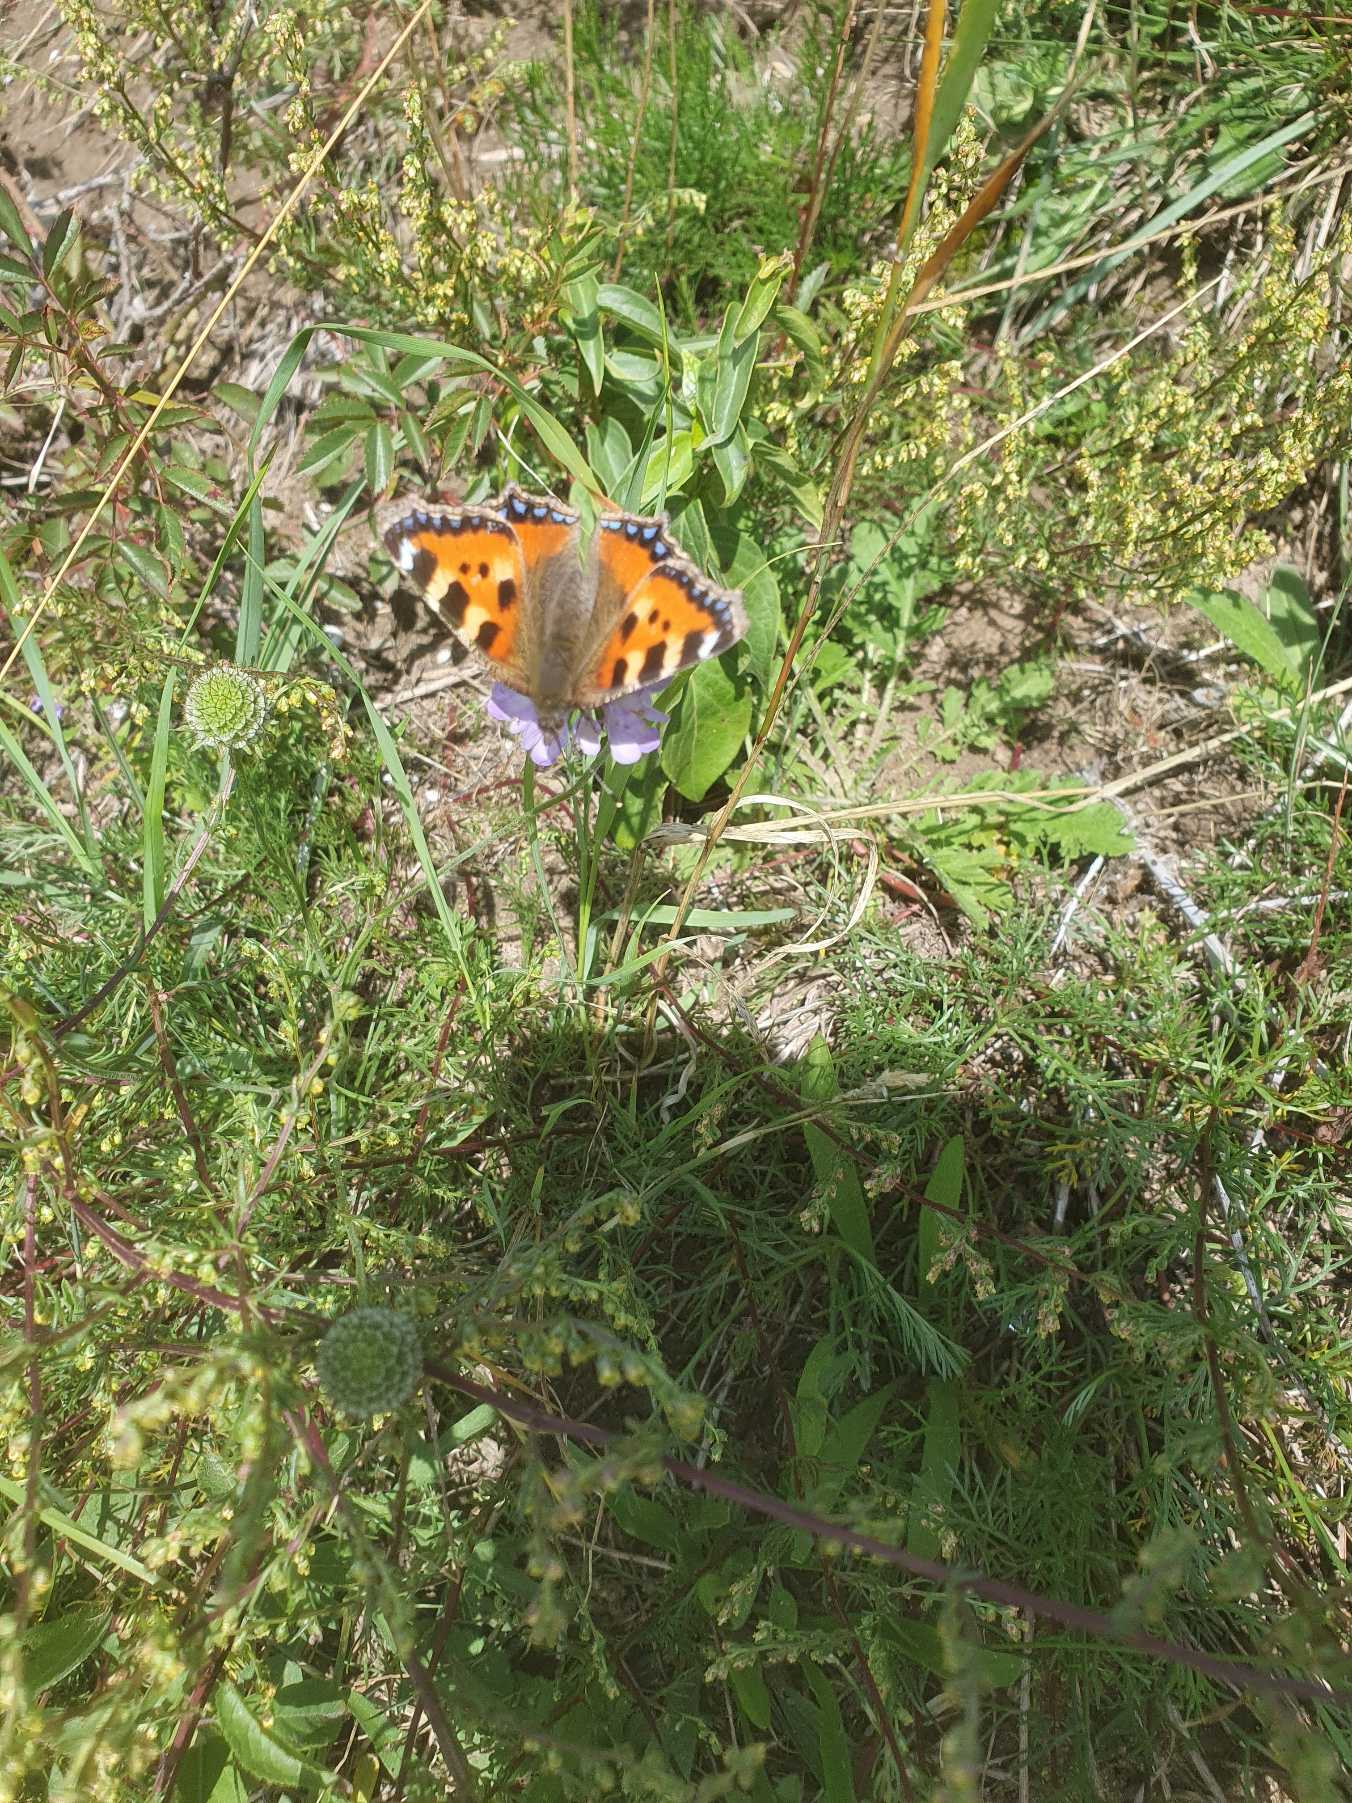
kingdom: Animalia
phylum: Arthropoda
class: Insecta
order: Lepidoptera
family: Nymphalidae
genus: Aglais
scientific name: Aglais urticae
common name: Nældens takvinge
